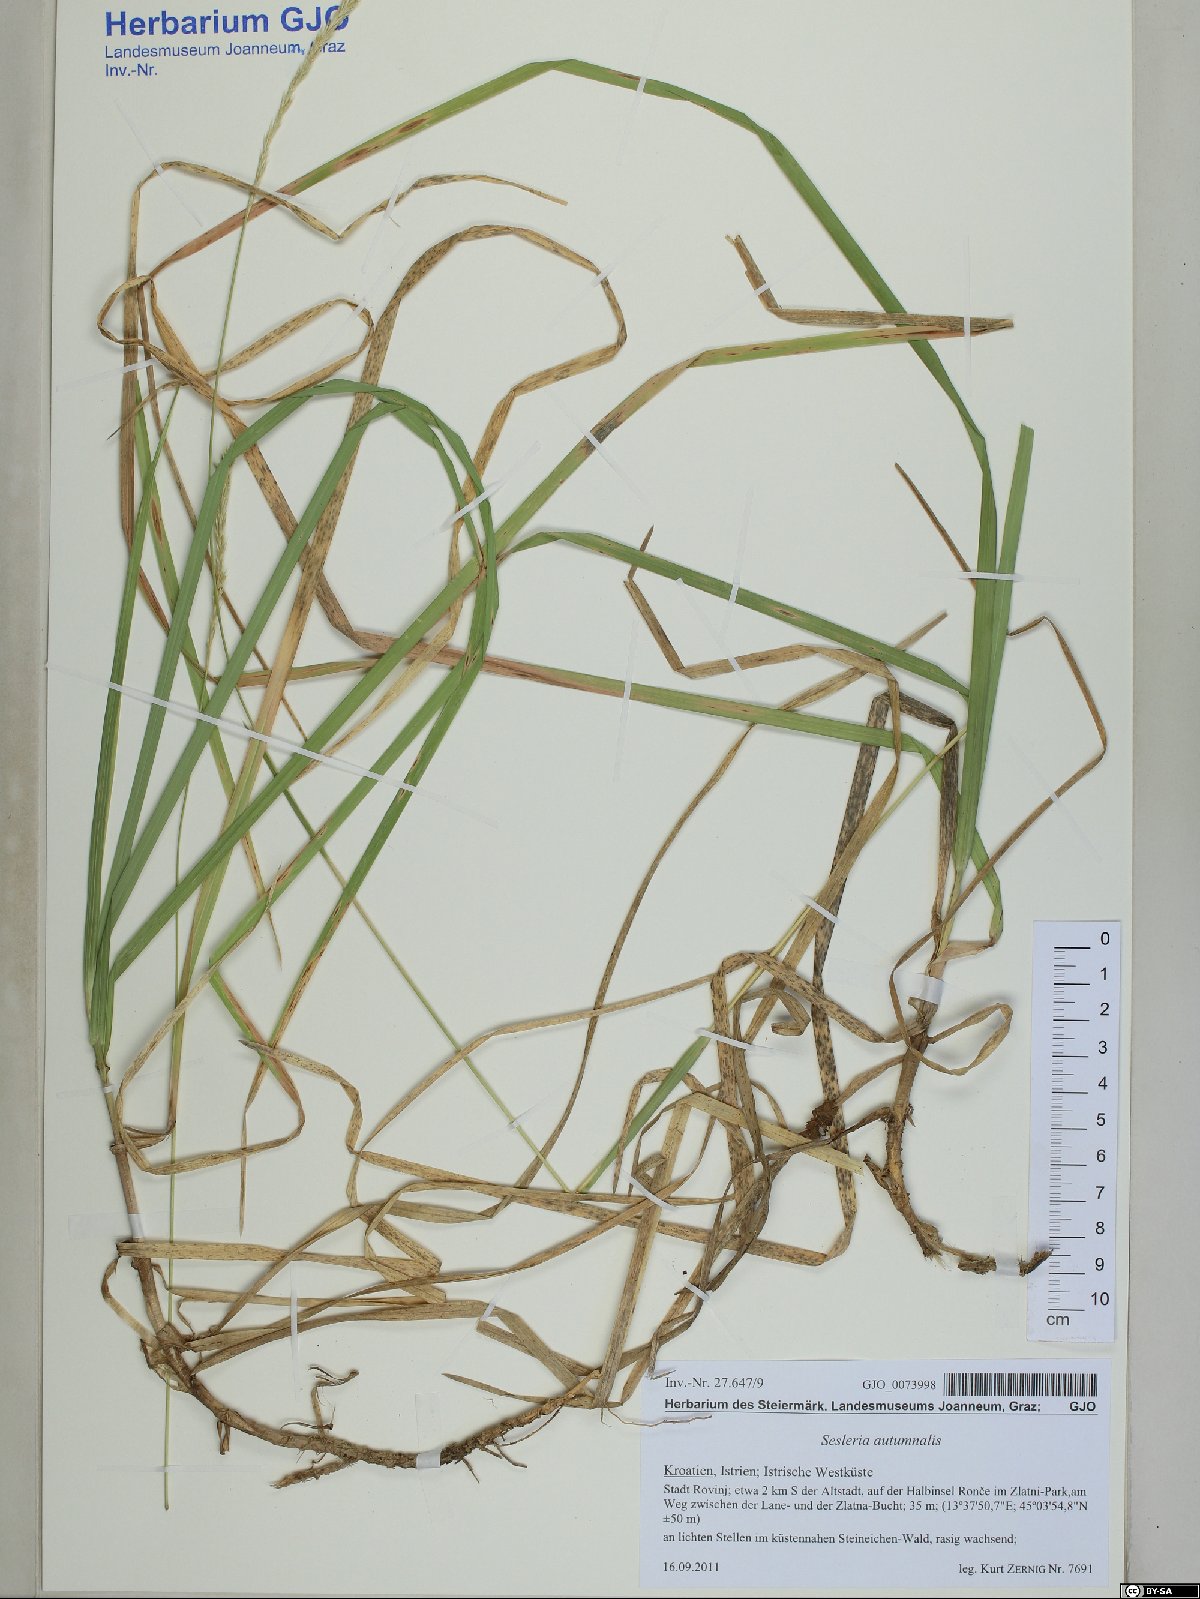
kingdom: Plantae
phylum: Tracheophyta
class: Liliopsida
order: Poales
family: Poaceae
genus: Sesleria
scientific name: Sesleria autumnalis
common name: Autumn moor grass
